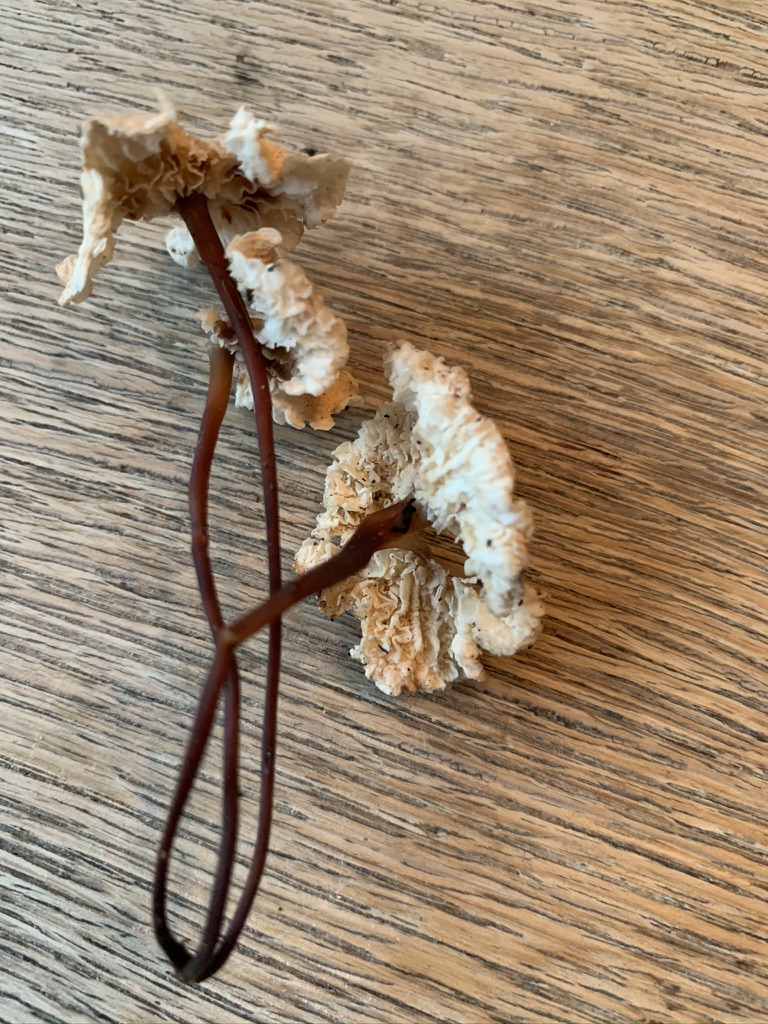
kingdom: Fungi
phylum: Basidiomycota
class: Agaricomycetes
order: Agaricales
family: Omphalotaceae
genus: Mycetinis
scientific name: Mycetinis scorodonius
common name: lille løghat
